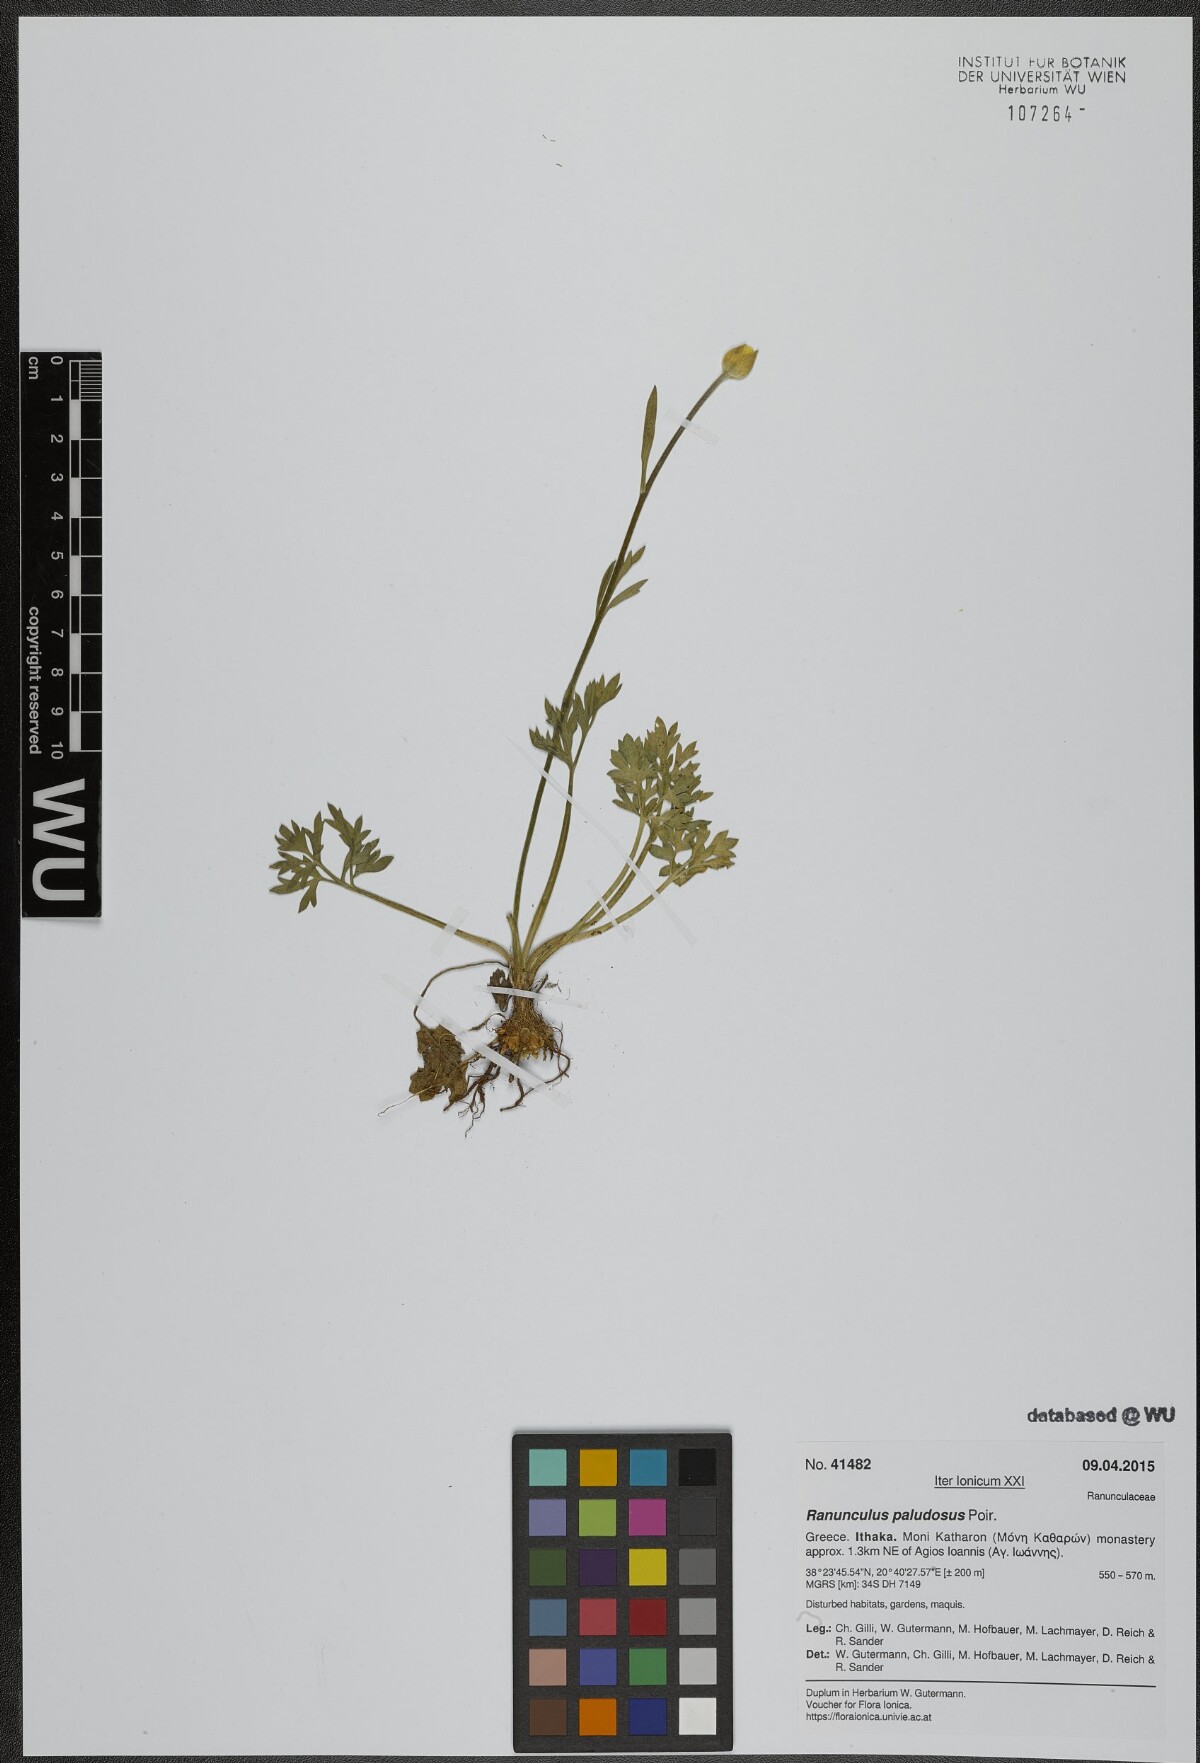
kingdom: Plantae
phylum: Tracheophyta
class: Magnoliopsida
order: Ranunculales
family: Ranunculaceae
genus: Ranunculus
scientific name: Ranunculus paludosus
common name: Jersey buttercup
